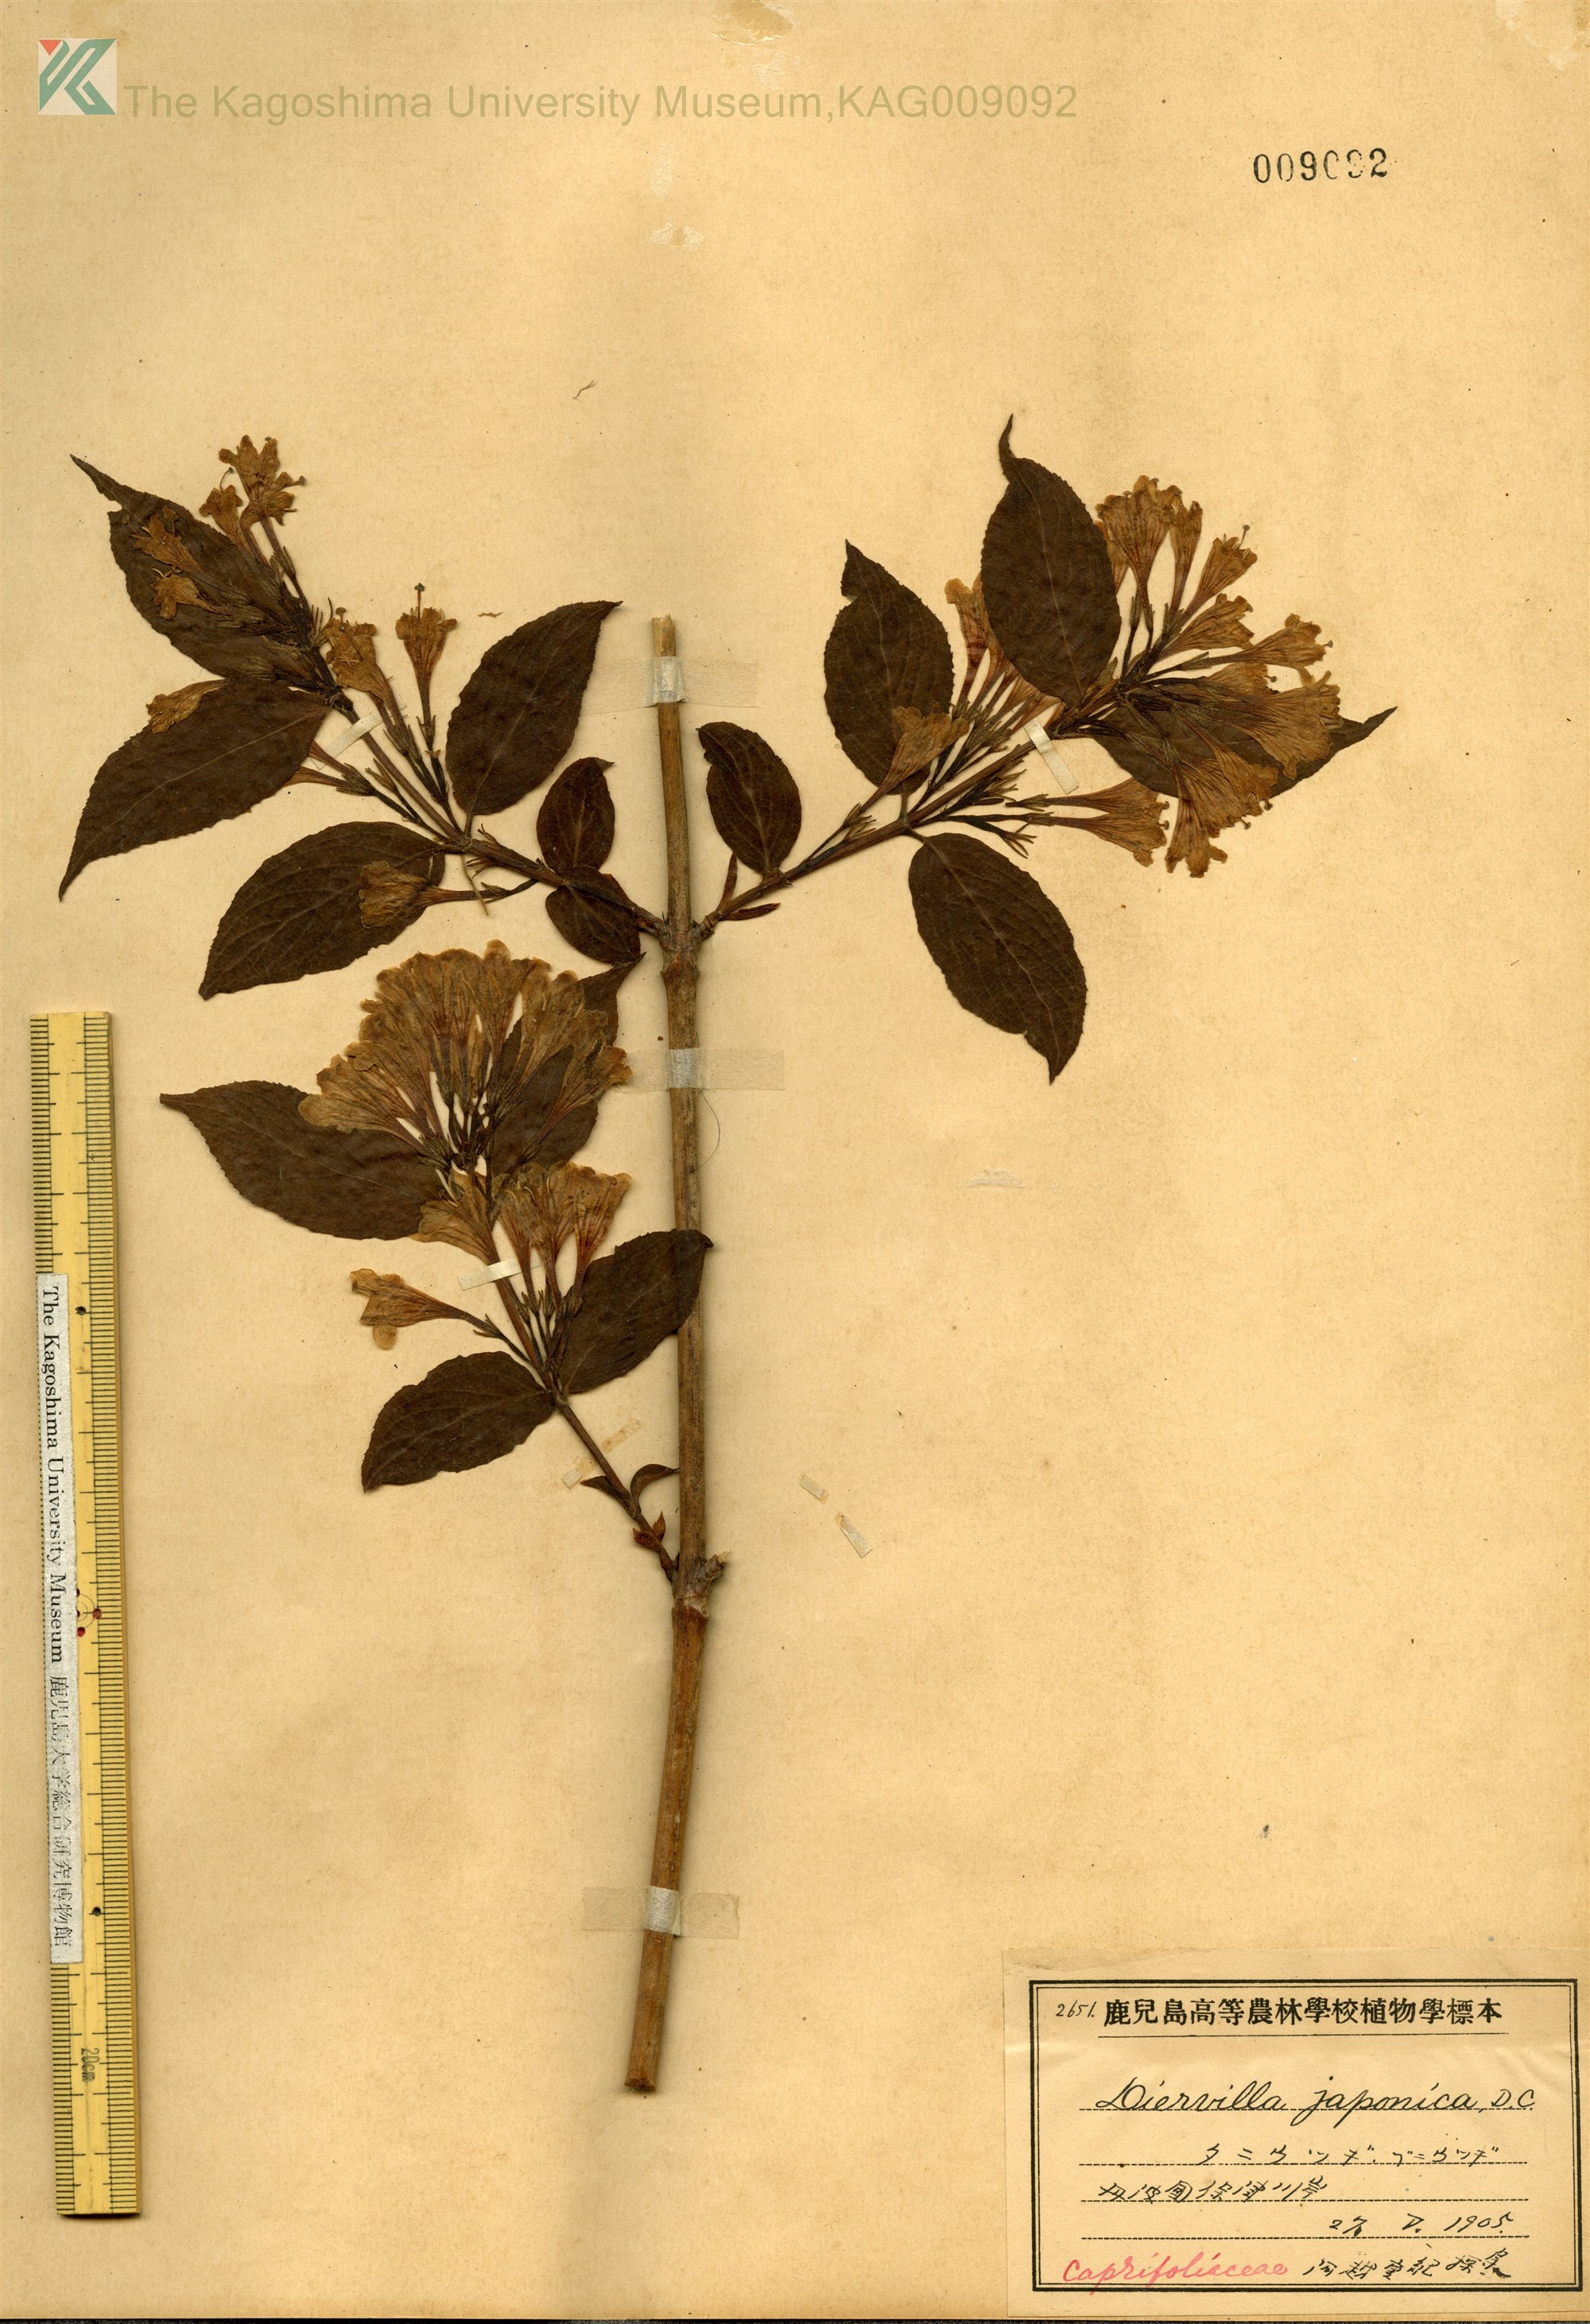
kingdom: Plantae
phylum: Tracheophyta
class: Magnoliopsida
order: Dipsacales
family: Caprifoliaceae
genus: Weigela
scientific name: Weigela hortensis
